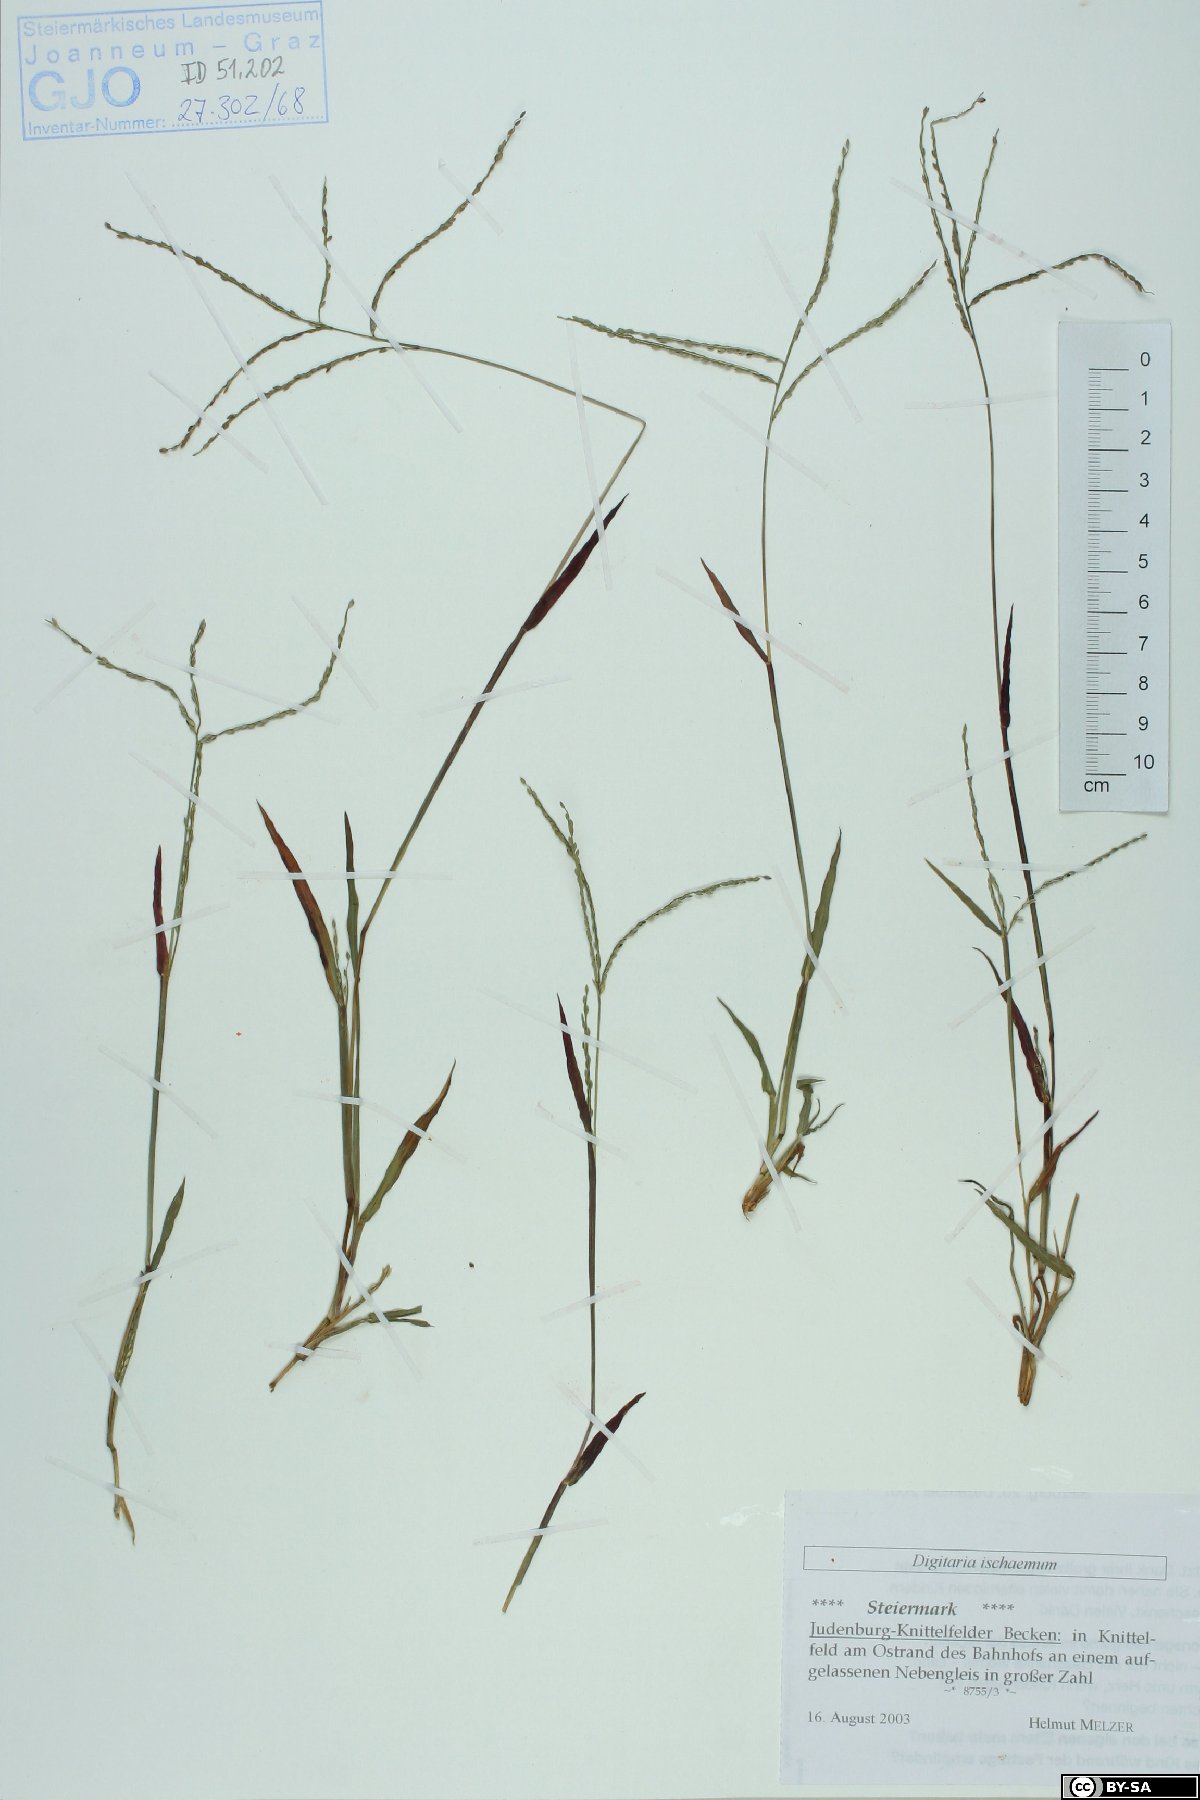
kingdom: Plantae
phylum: Tracheophyta
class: Liliopsida
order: Poales
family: Poaceae
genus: Digitaria
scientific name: Digitaria ischaemum
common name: Smooth crabgrass
